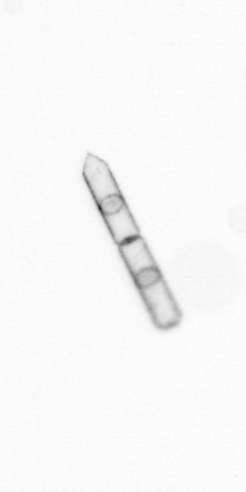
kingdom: Chromista
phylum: Ochrophyta
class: Bacillariophyceae
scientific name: Bacillariophyceae
